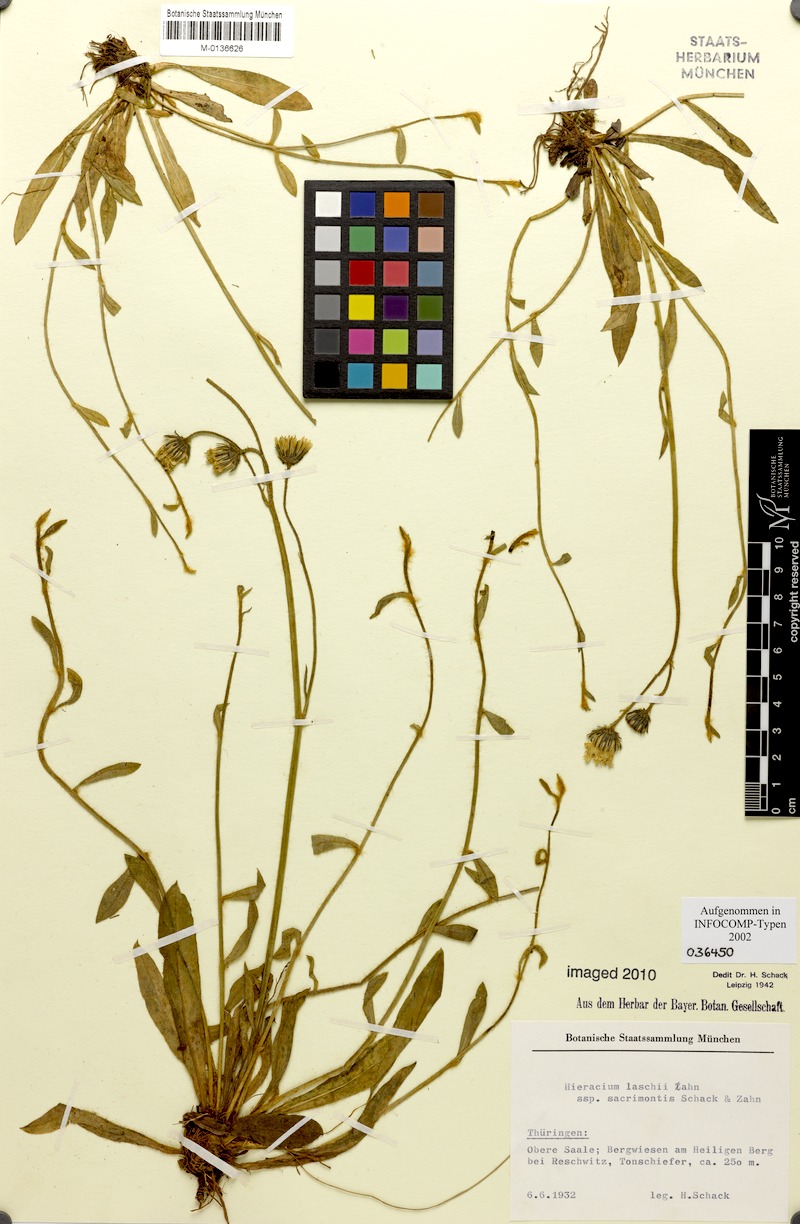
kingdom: Plantae
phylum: Tracheophyta
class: Magnoliopsida
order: Asterales
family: Asteraceae
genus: Pilosella
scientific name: Pilosella acutifolia
